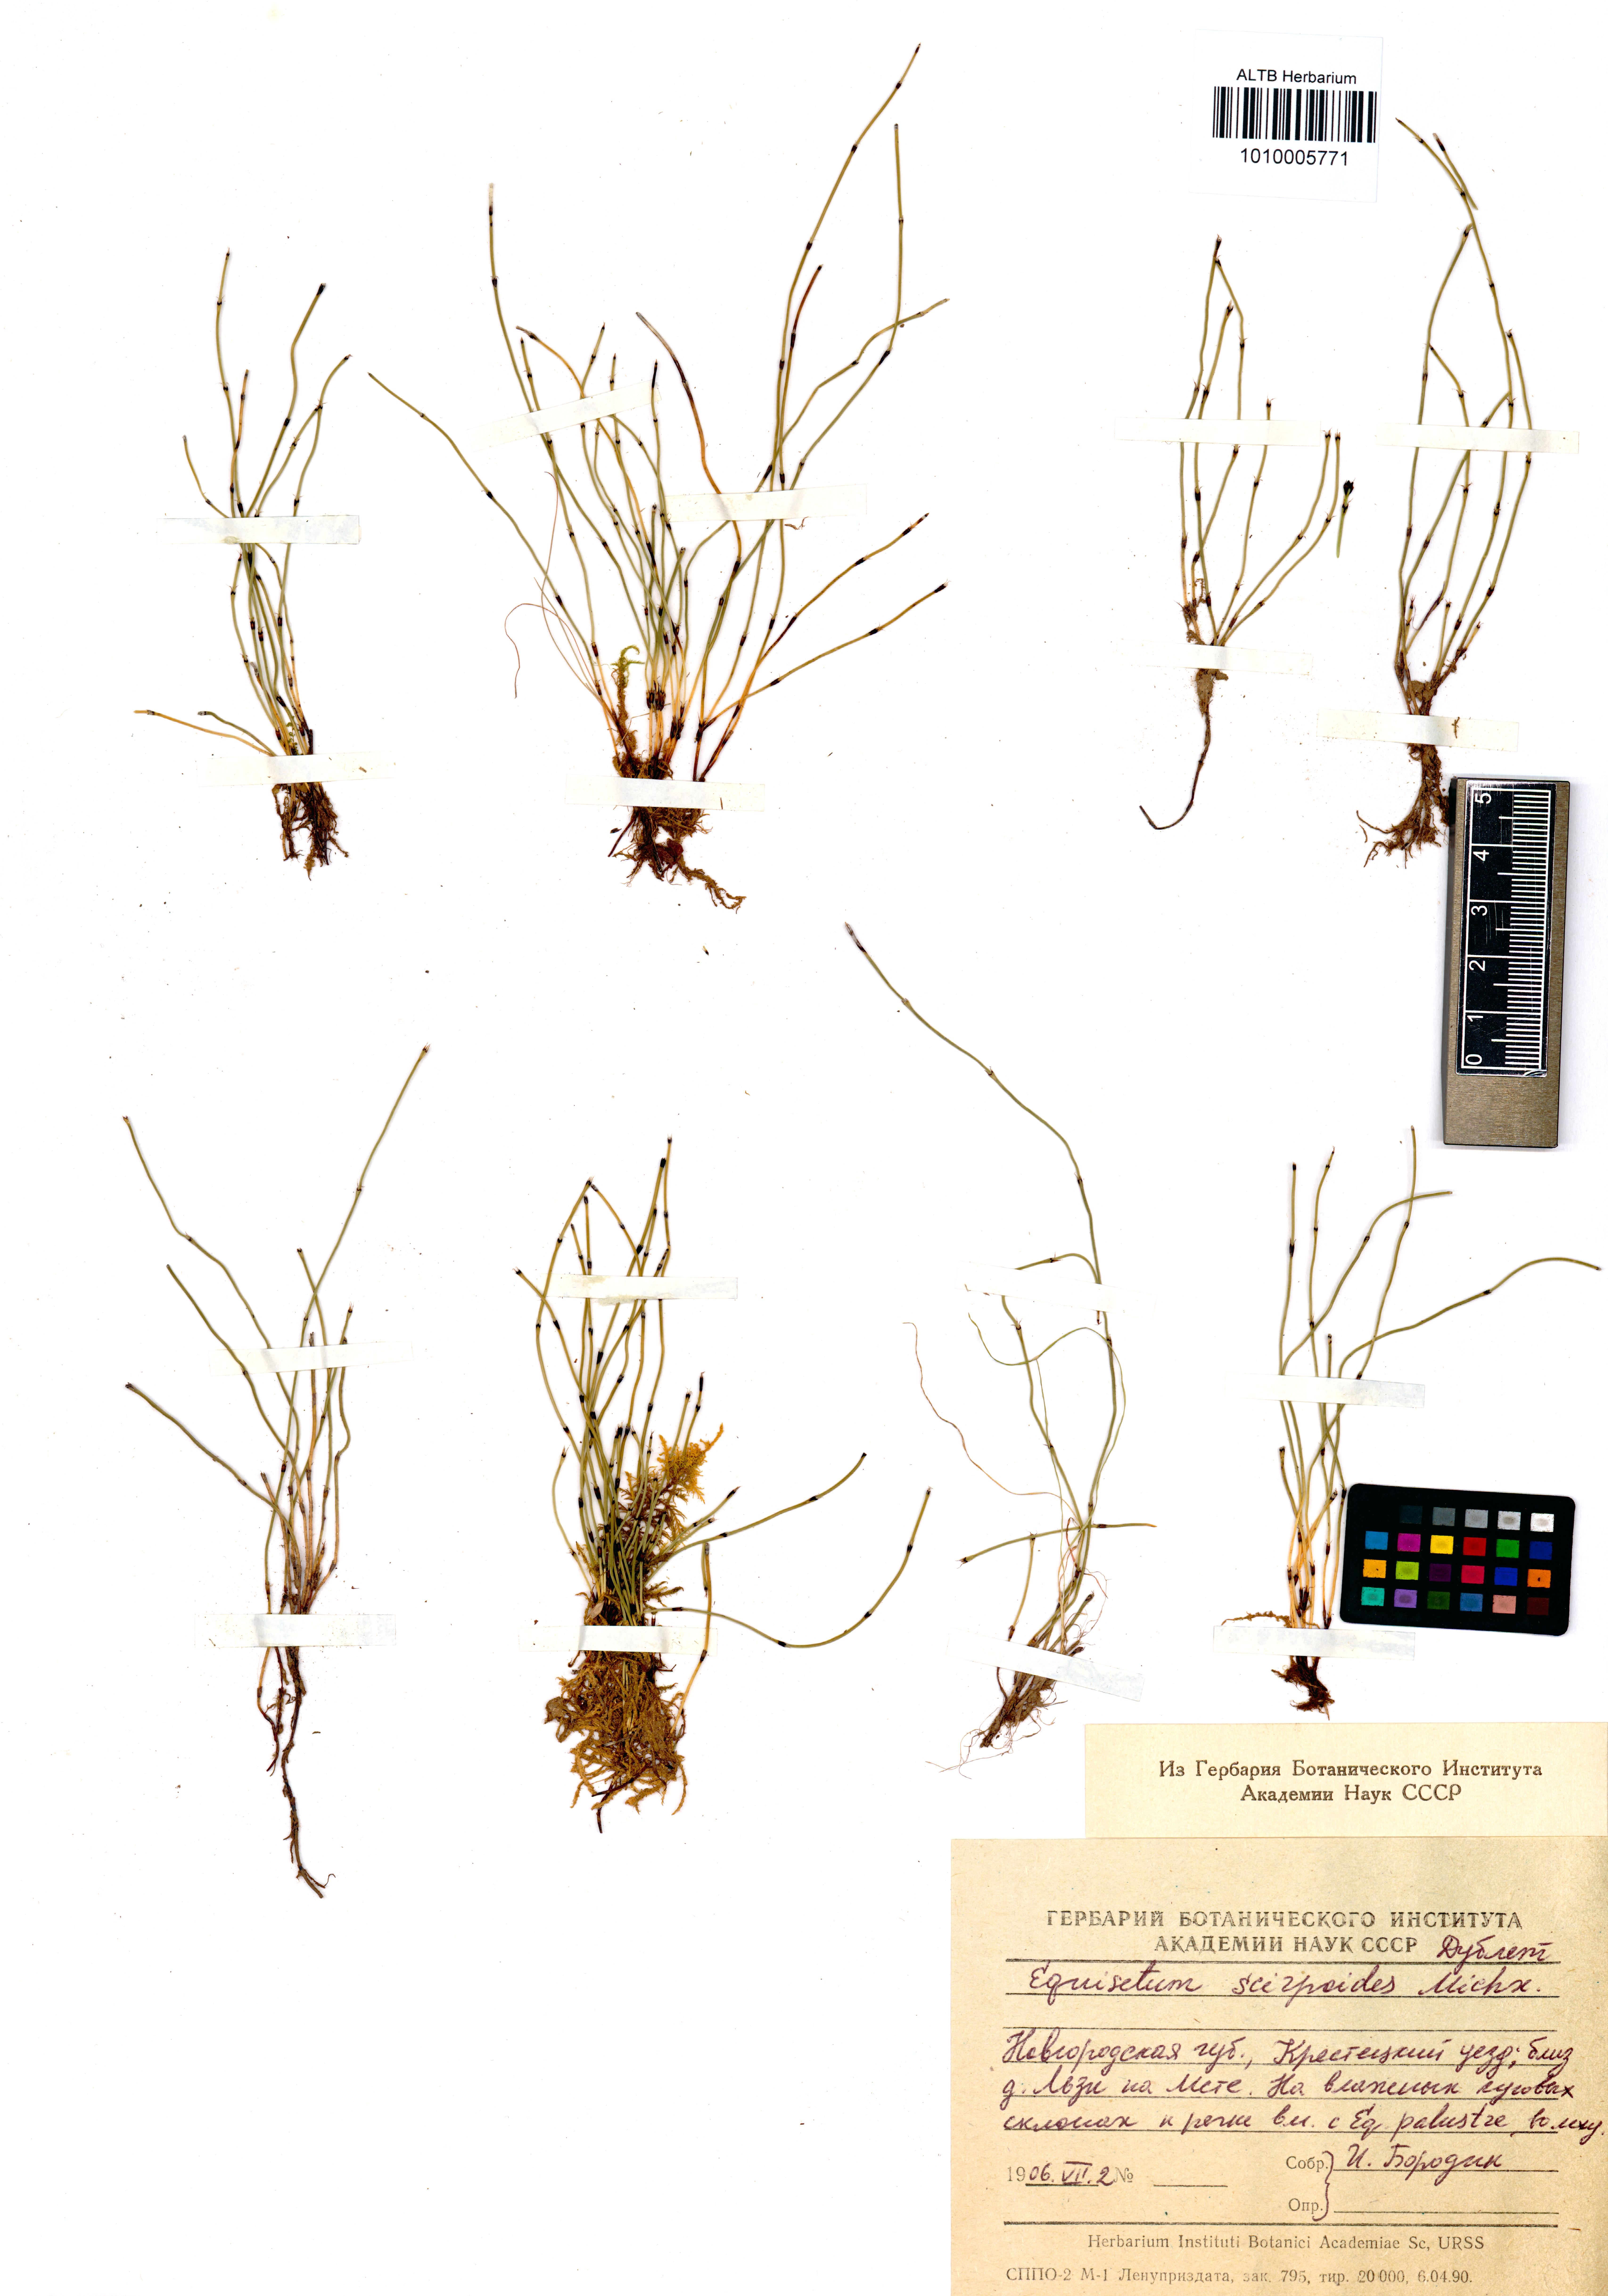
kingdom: Plantae
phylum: Tracheophyta
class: Polypodiopsida
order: Equisetales
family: Equisetaceae
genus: Equisetum
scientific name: Equisetum scirpoides
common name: Delicate horsetail
